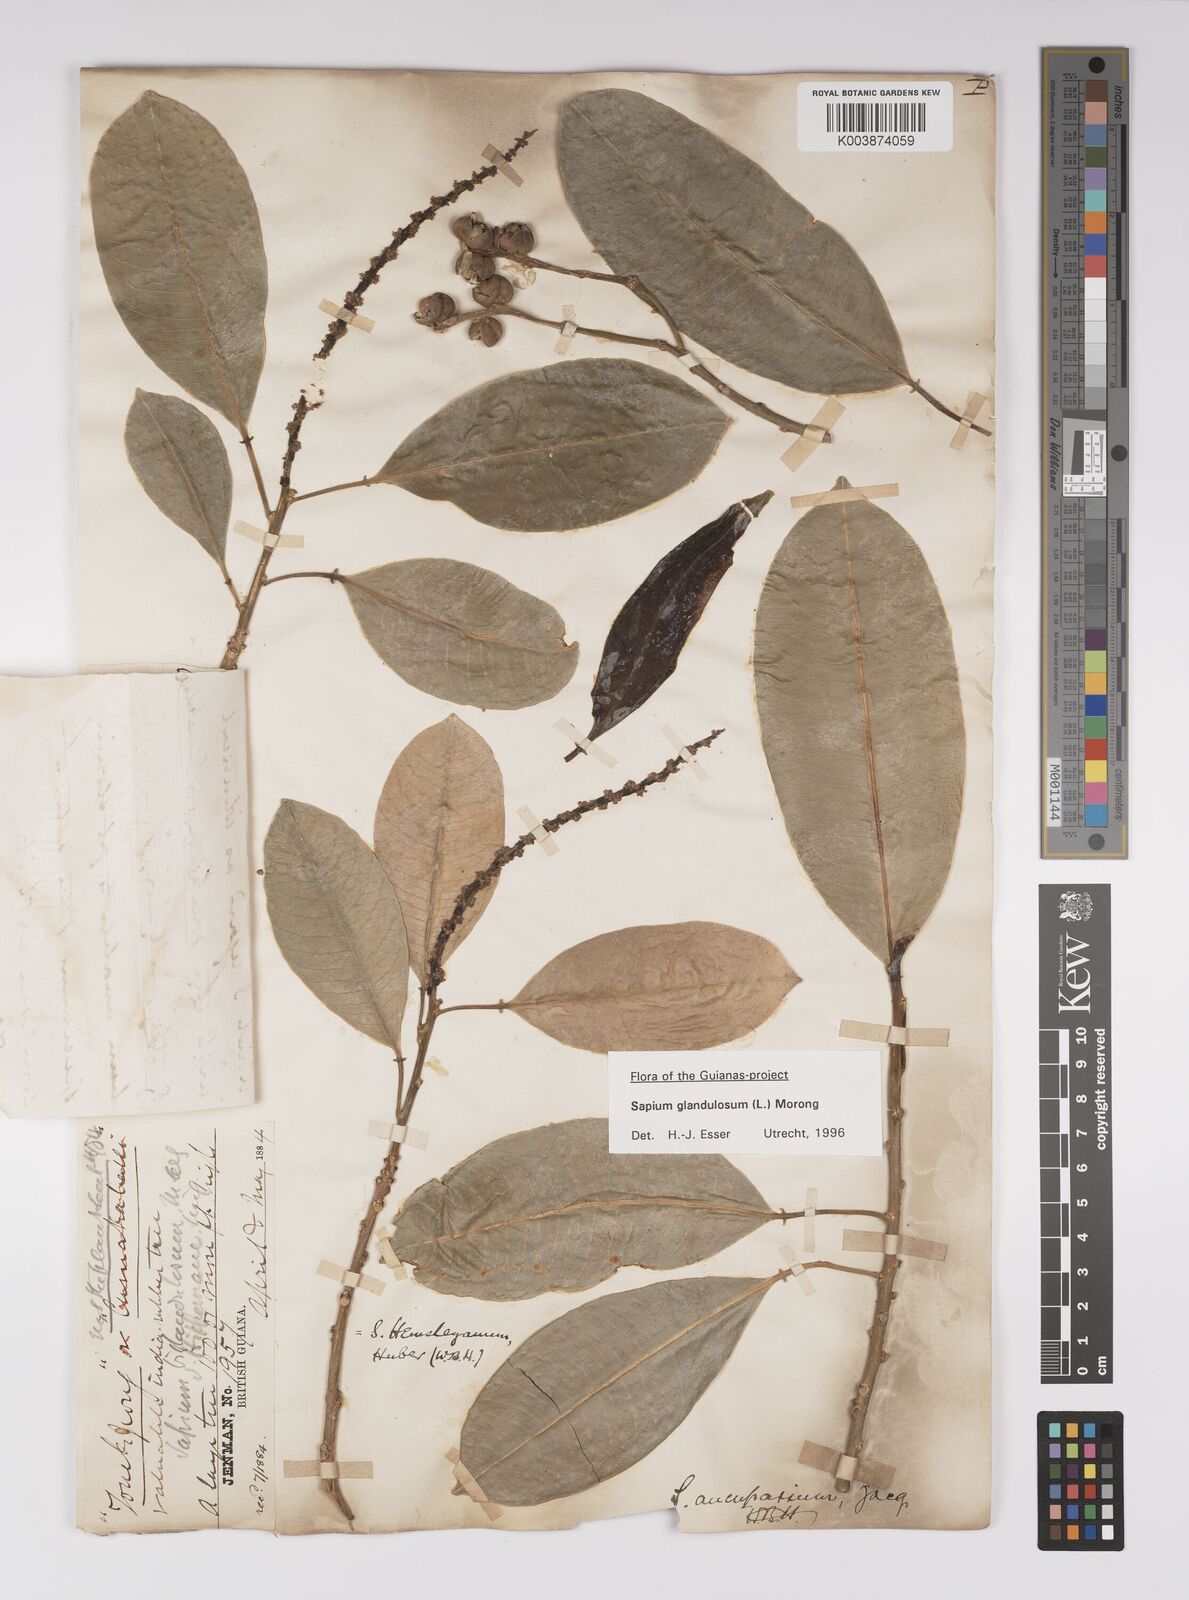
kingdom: Plantae
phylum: Tracheophyta
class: Magnoliopsida
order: Malpighiales
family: Euphorbiaceae
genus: Sapium
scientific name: Sapium glandulosum
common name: Milktree
